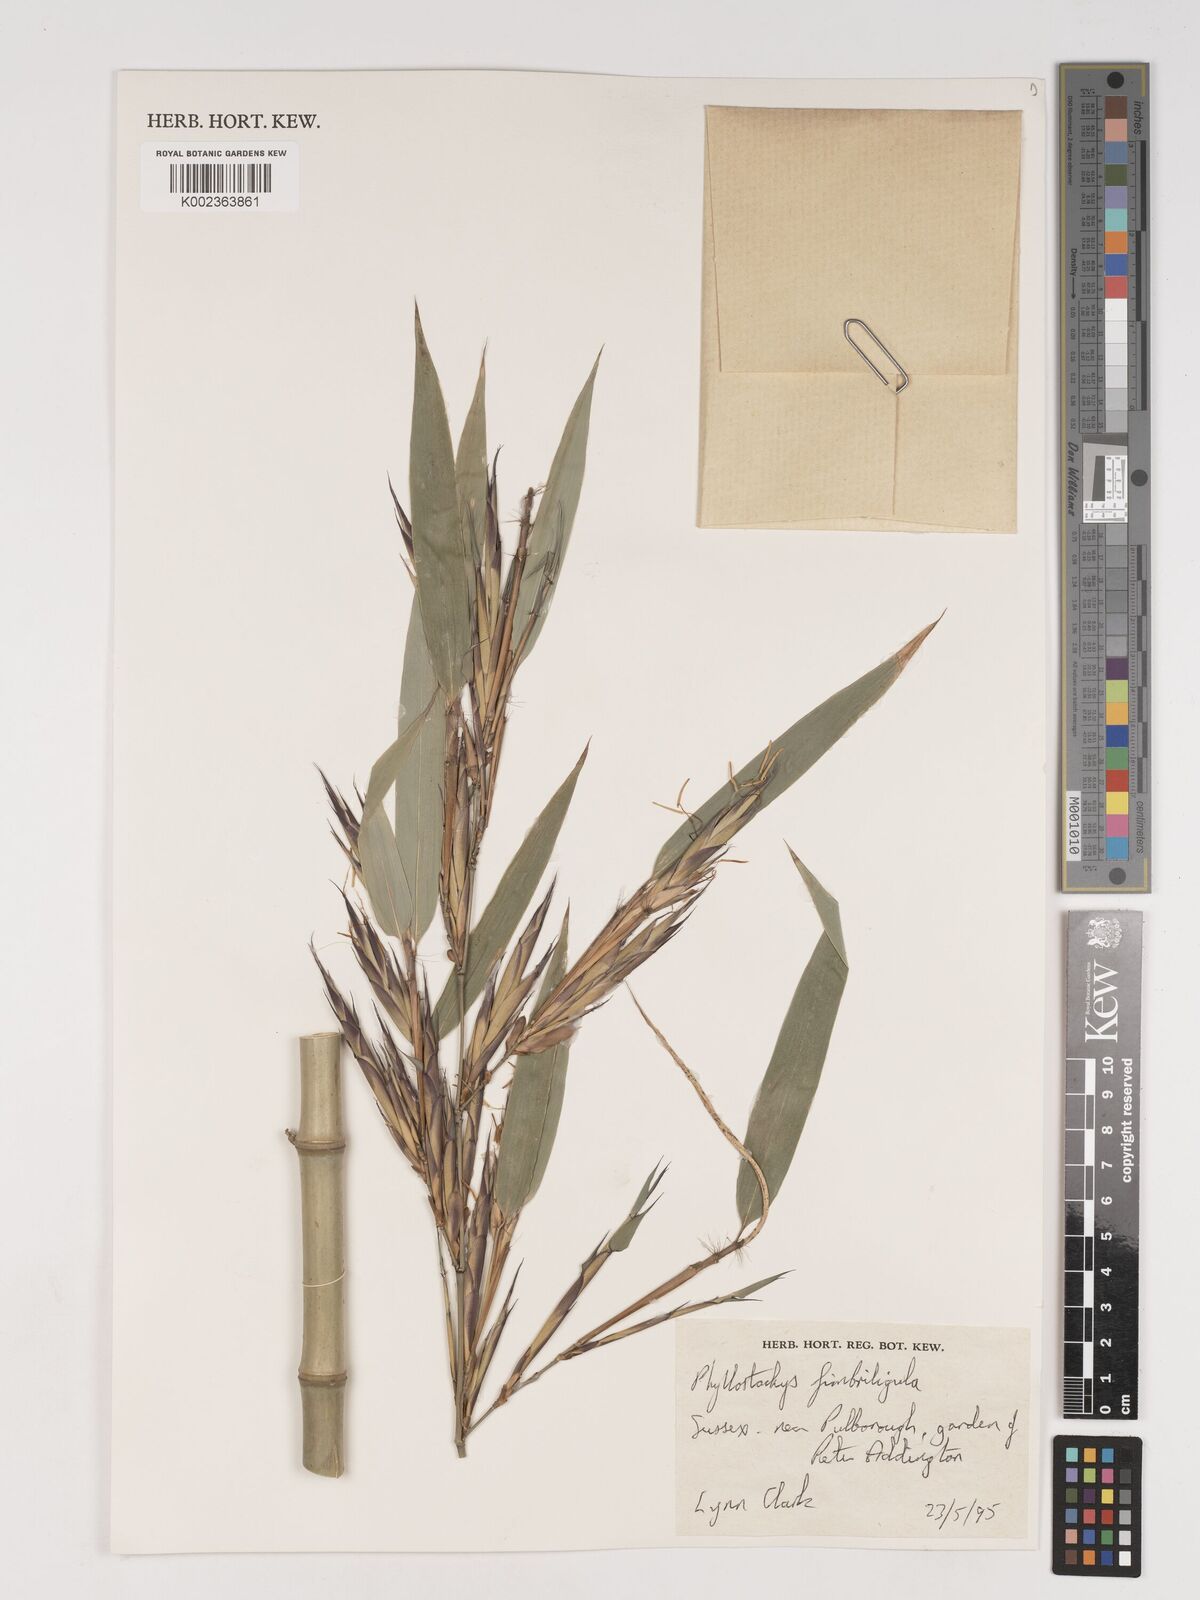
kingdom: Plantae
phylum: Tracheophyta
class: Liliopsida
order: Poales
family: Poaceae
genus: Phyllostachys
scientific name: Phyllostachys
